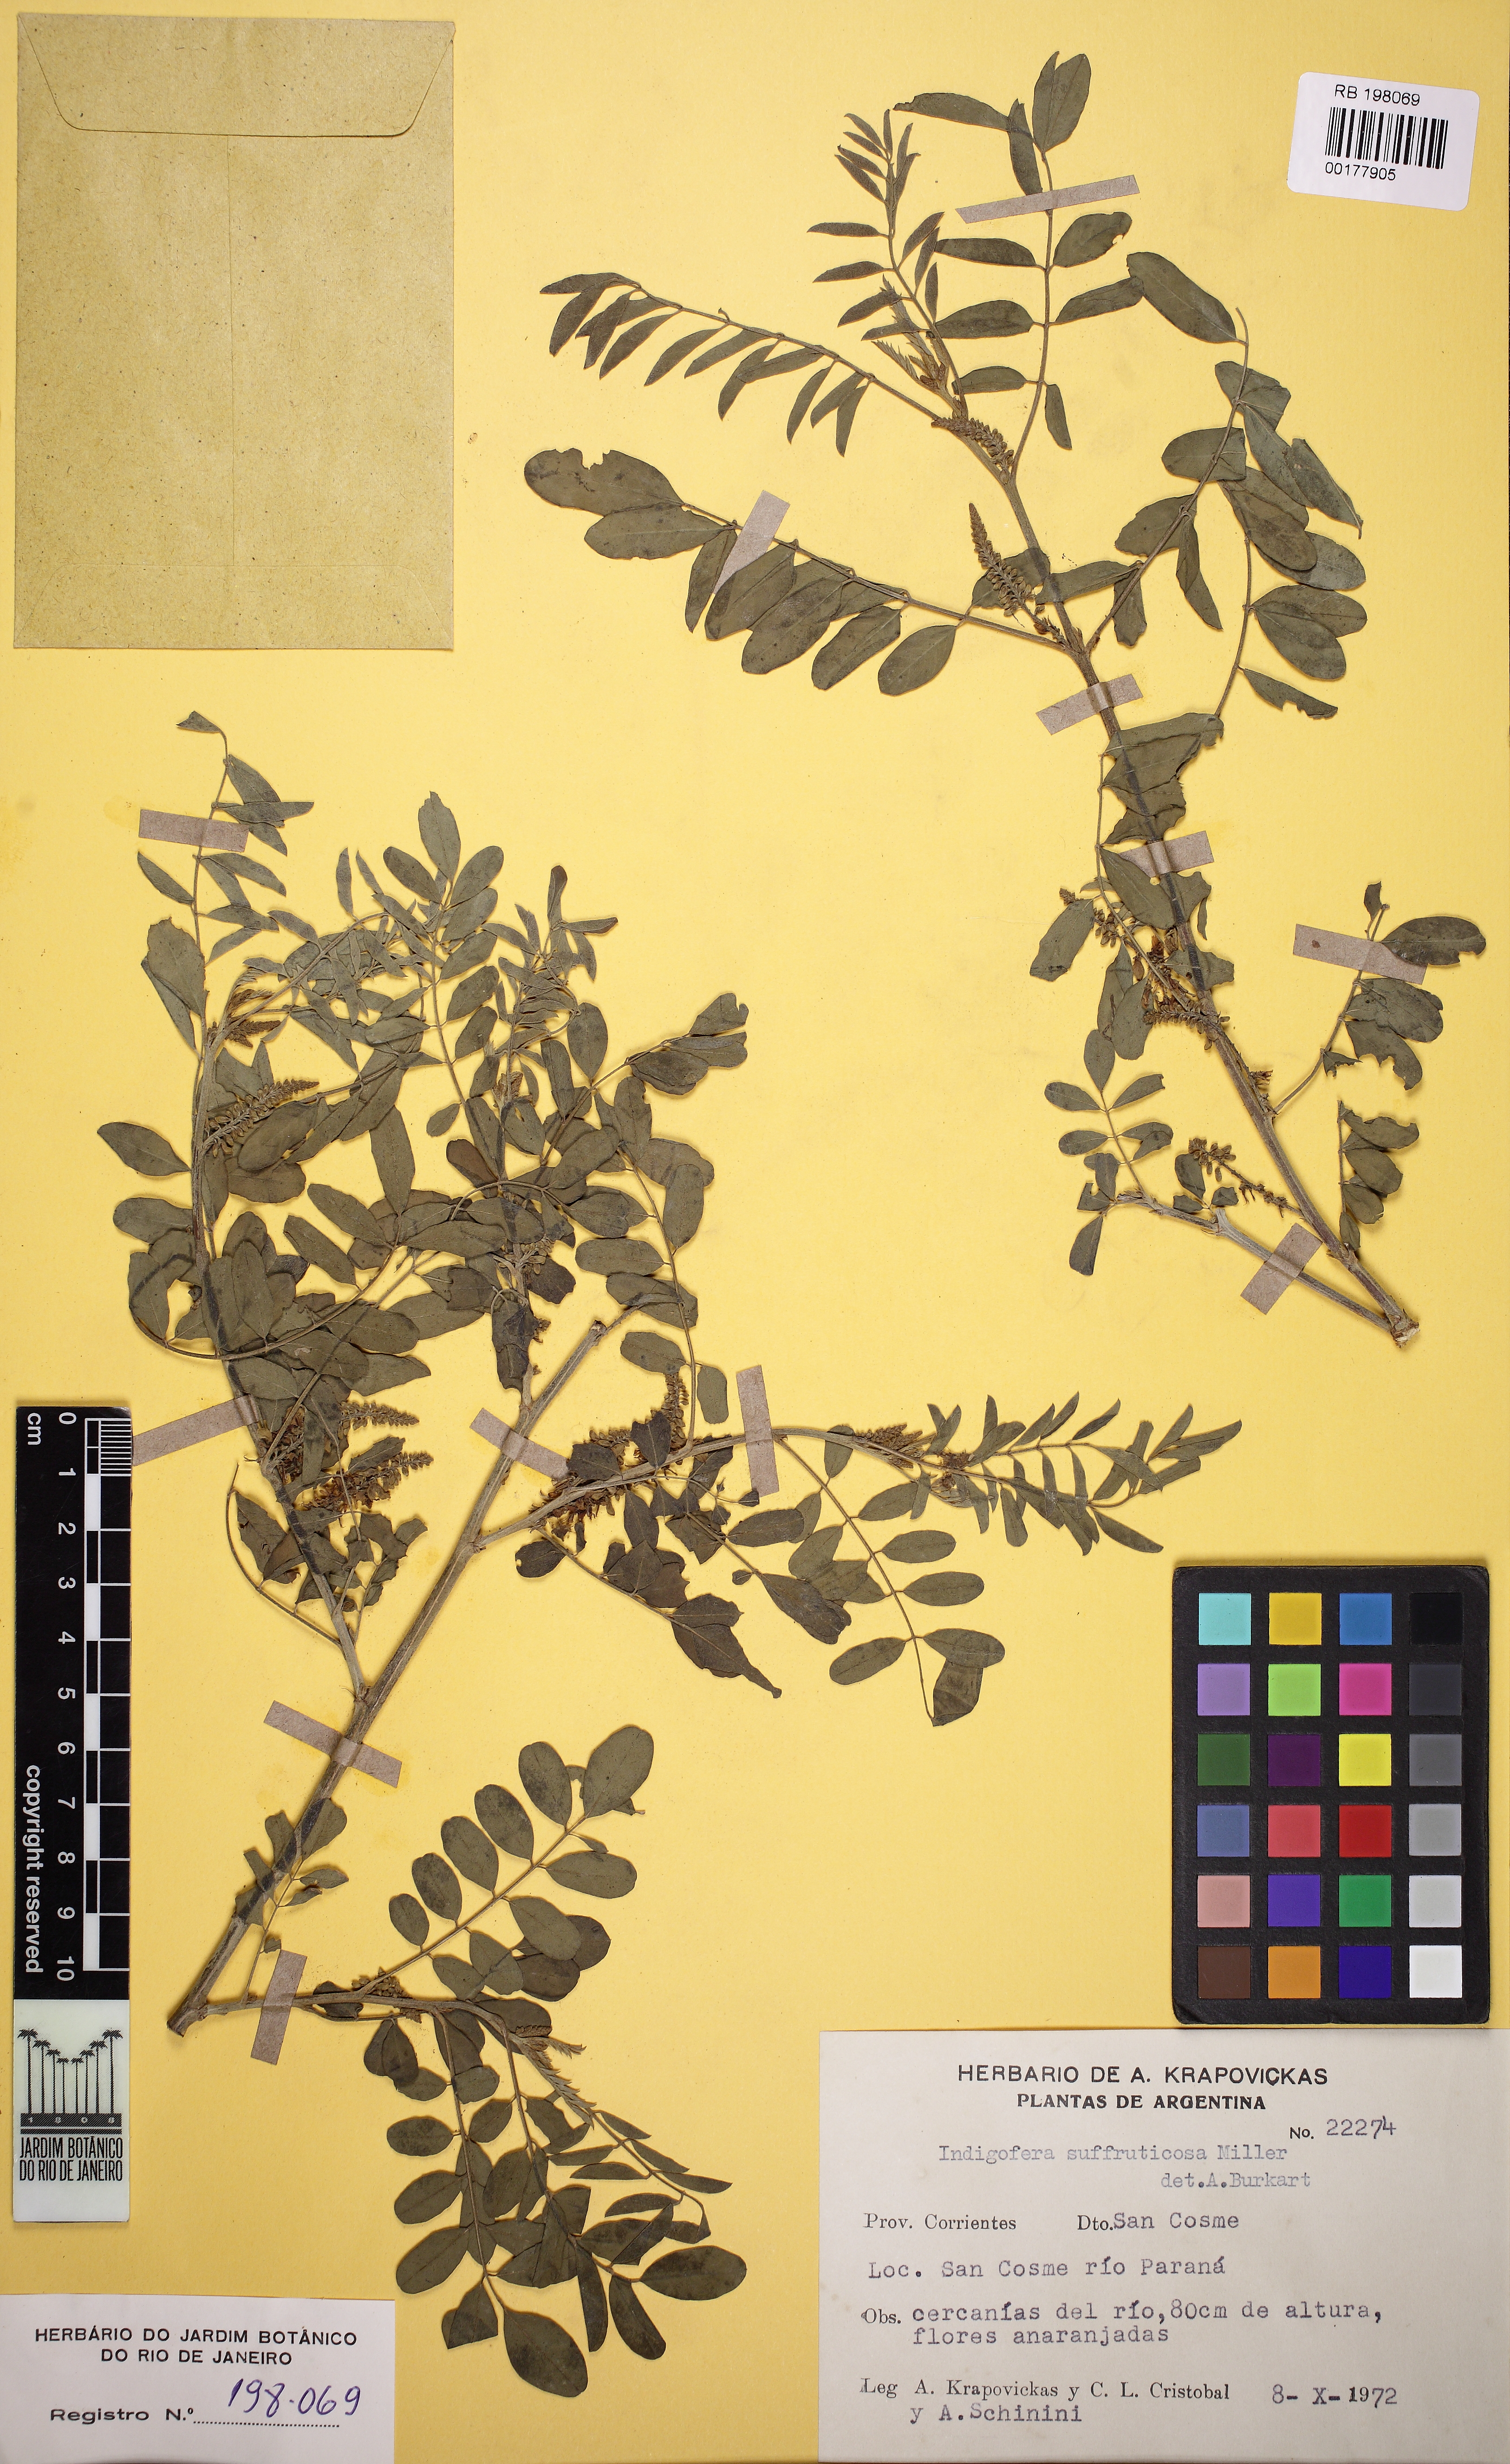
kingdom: Plantae
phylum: Tracheophyta
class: Magnoliopsida
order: Fabales
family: Fabaceae
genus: Indigofera
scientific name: Indigofera suffruticosa
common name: Anil de pasto
